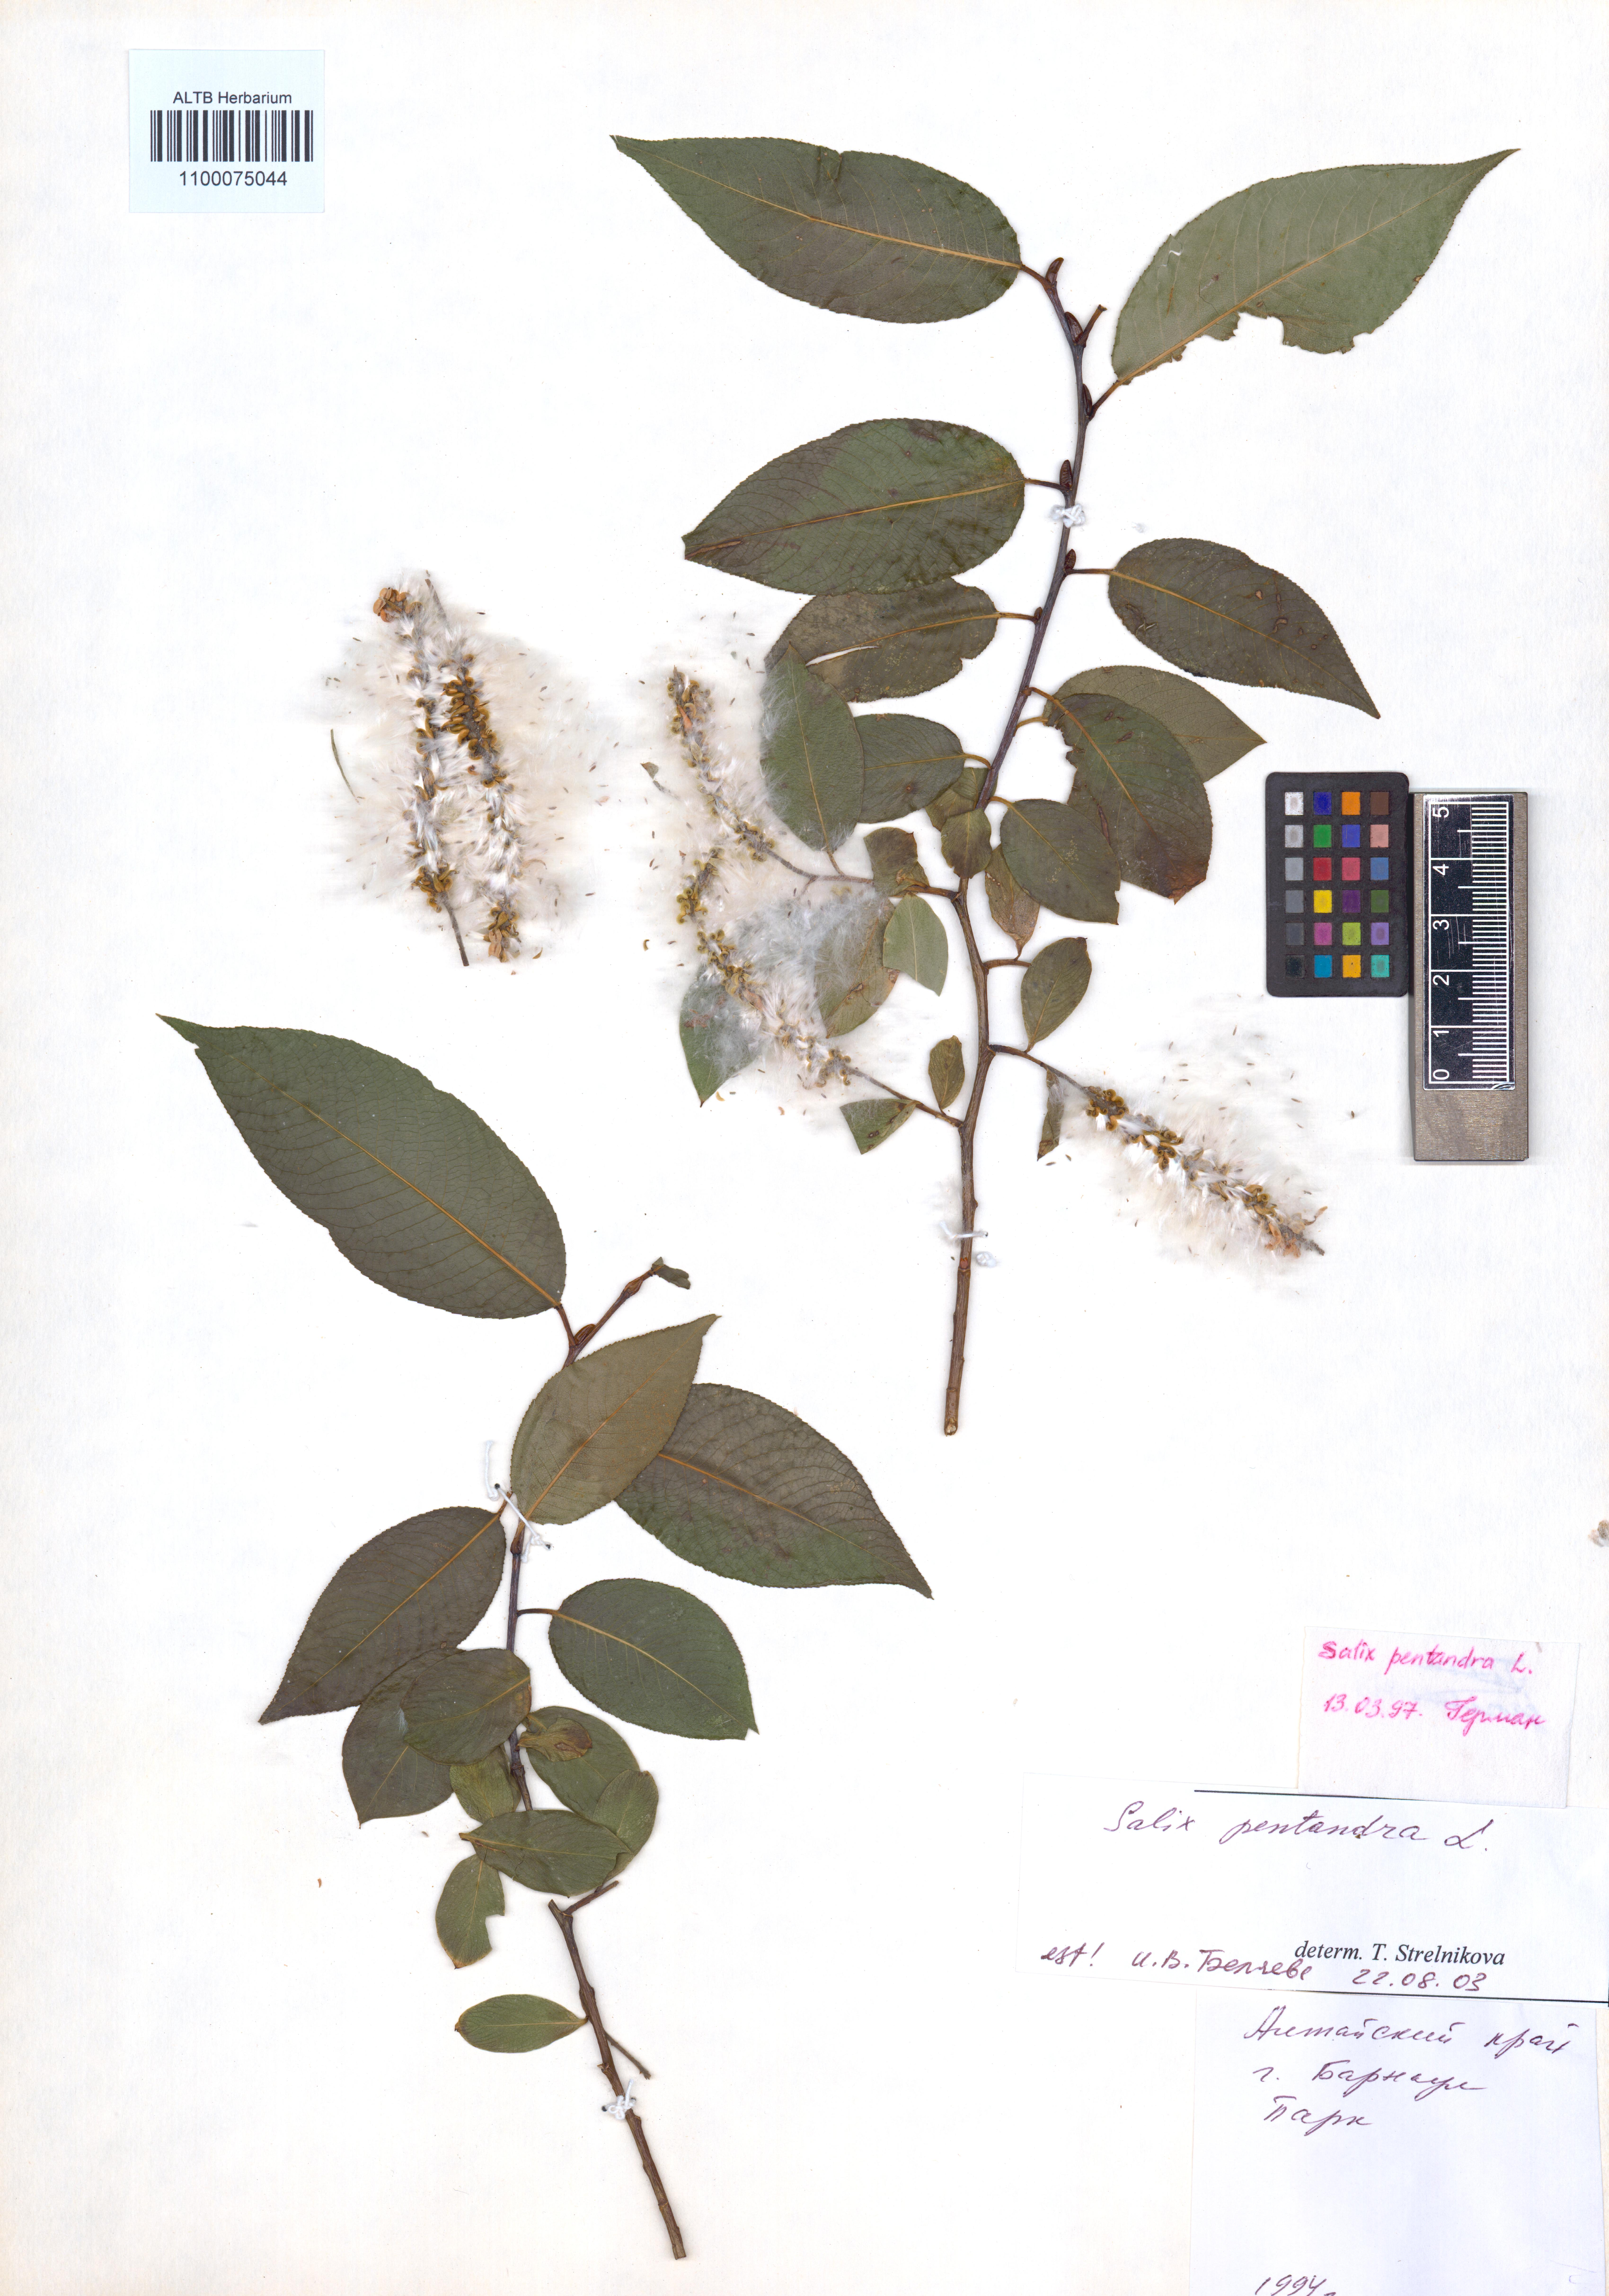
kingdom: Plantae
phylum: Tracheophyta
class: Magnoliopsida
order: Malpighiales
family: Salicaceae
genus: Salix
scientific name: Salix pentandra
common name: Bay willow
